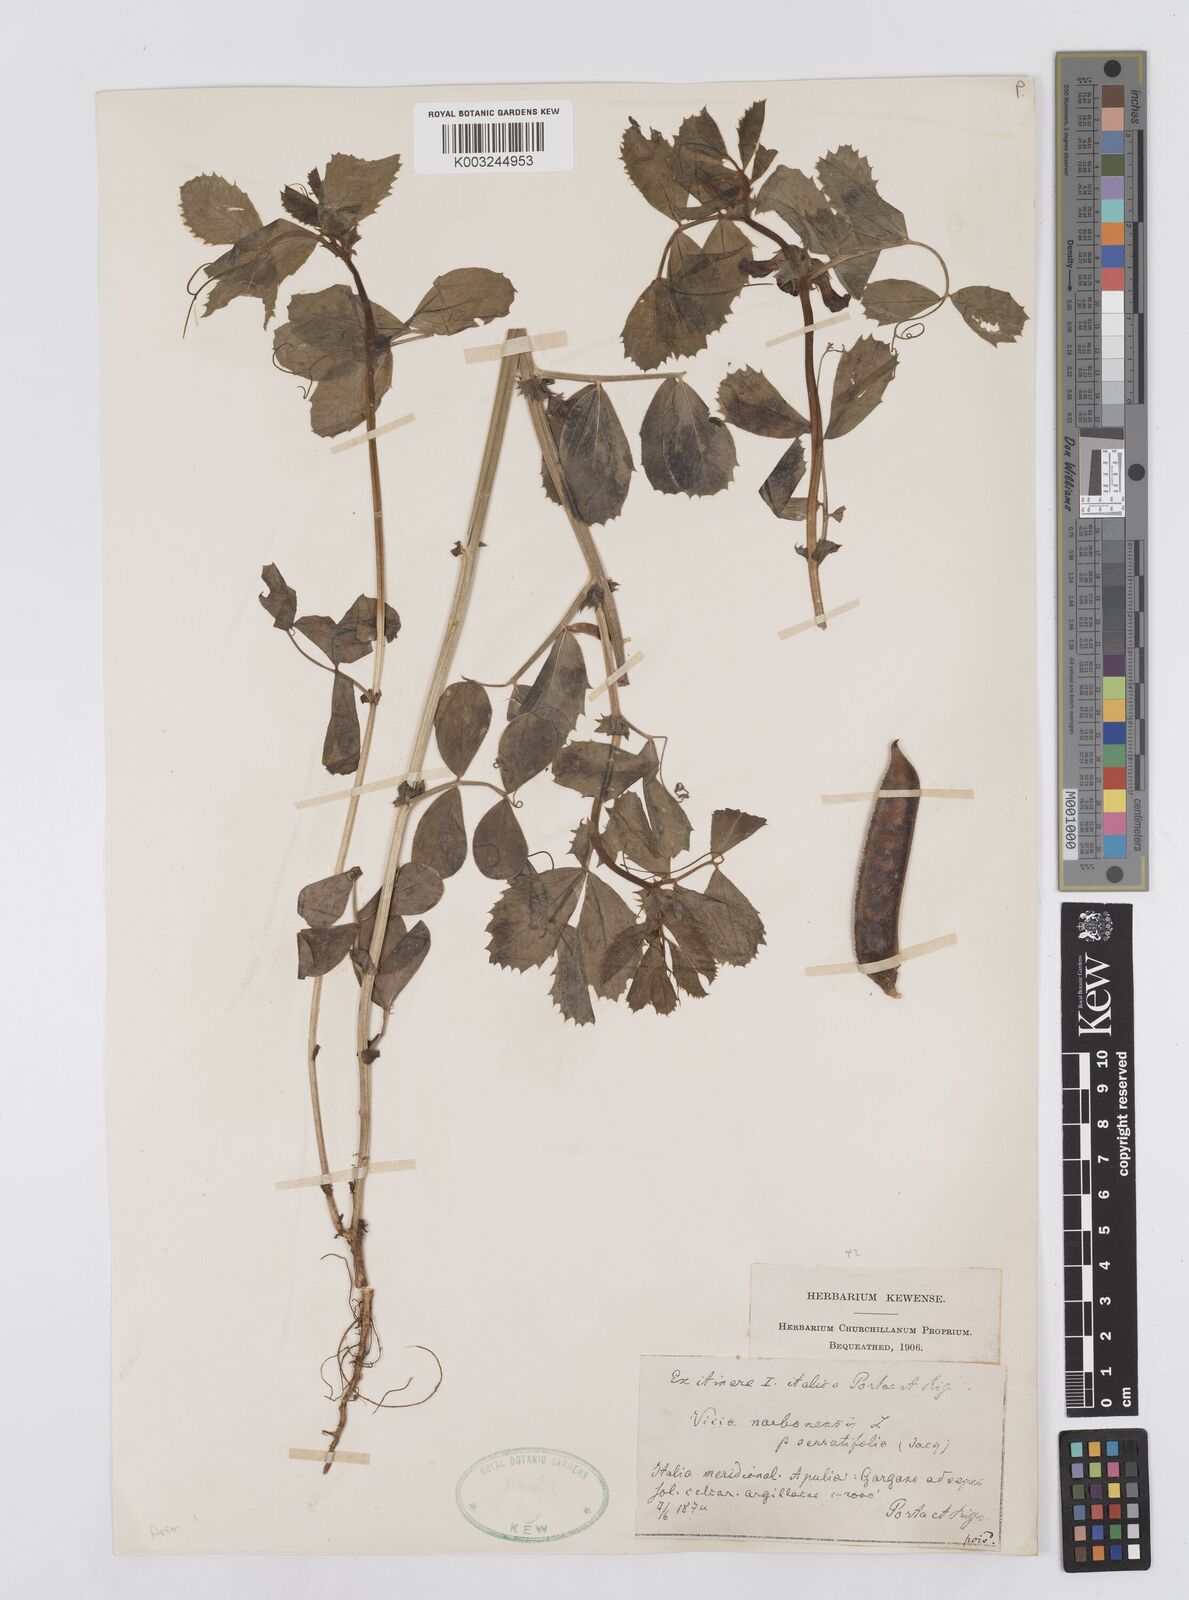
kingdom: Plantae
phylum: Tracheophyta
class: Magnoliopsida
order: Fabales
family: Fabaceae
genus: Vicia
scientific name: Vicia serratifolia
